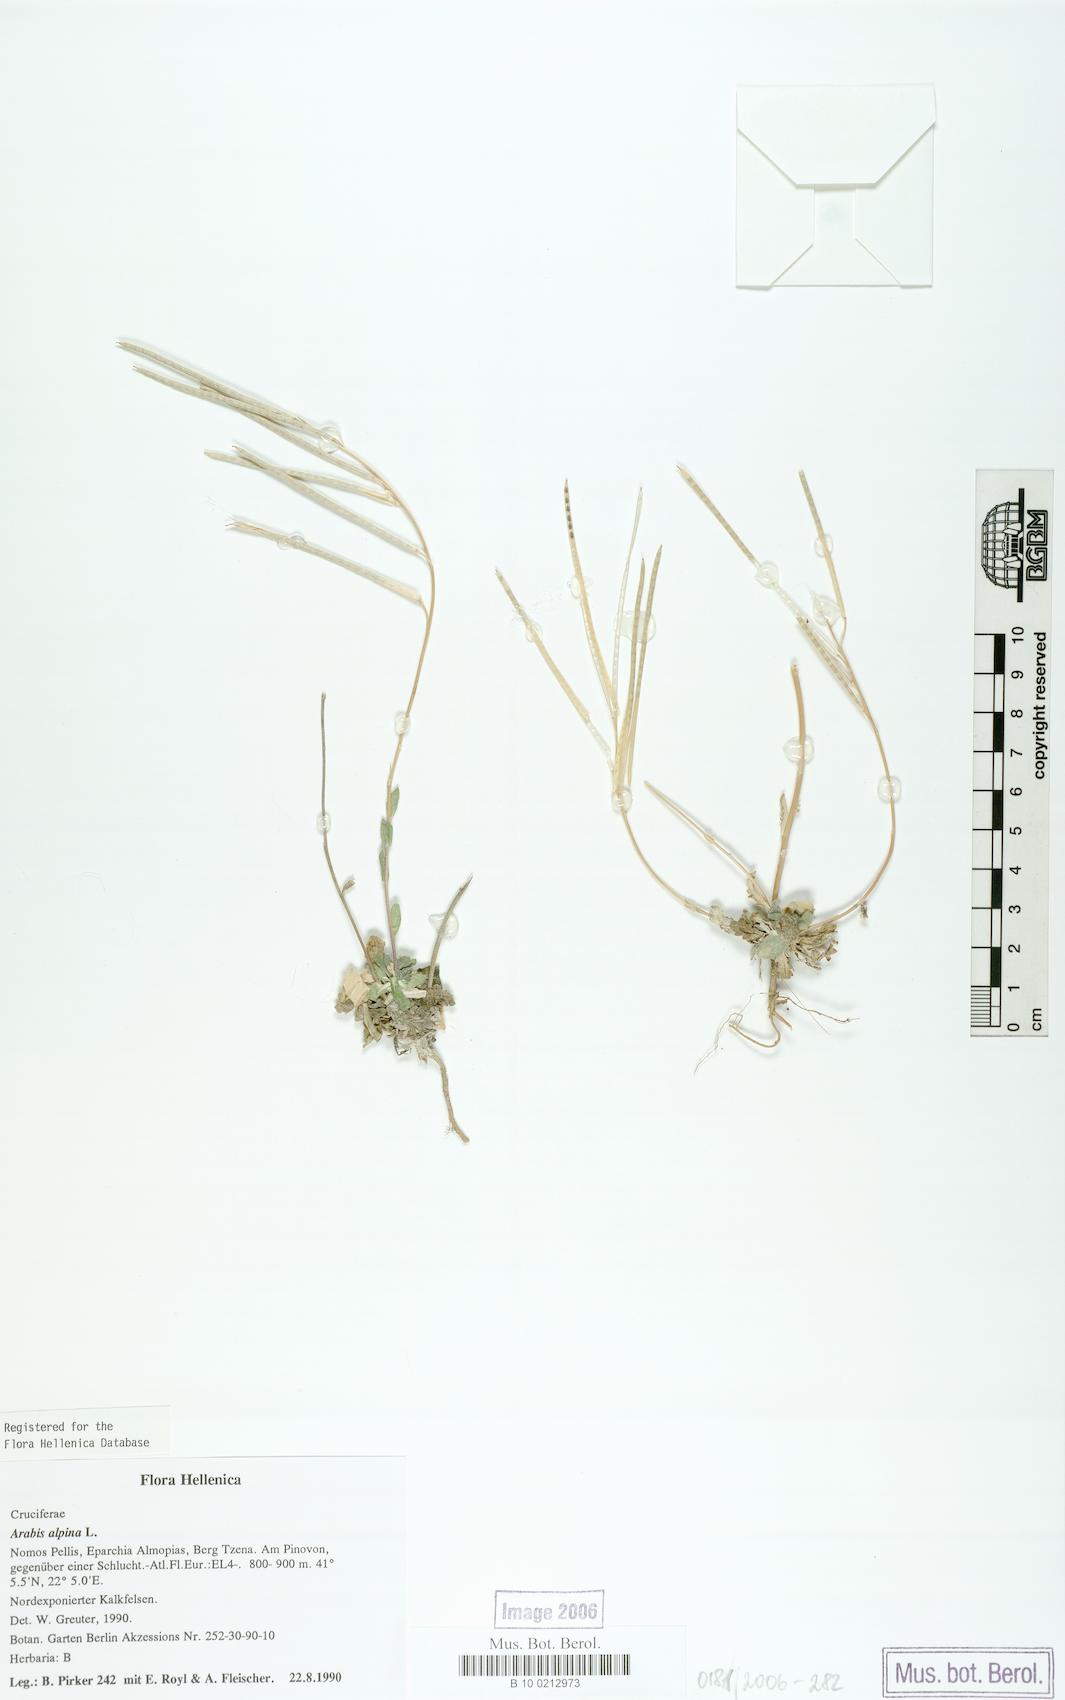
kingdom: Plantae
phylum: Tracheophyta
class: Magnoliopsida
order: Brassicales
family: Brassicaceae
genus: Arabis
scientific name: Arabis alpina
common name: Alpine rock-cress
